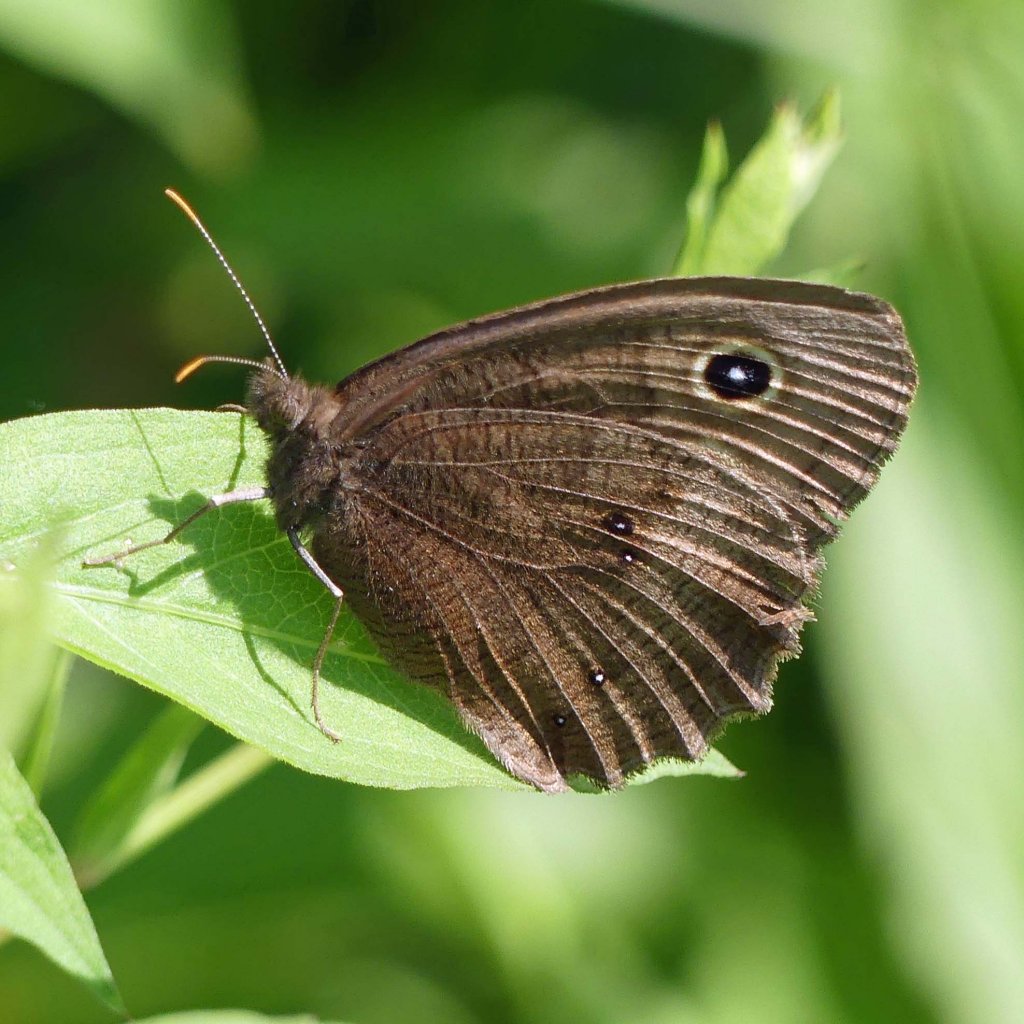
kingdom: Animalia
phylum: Arthropoda
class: Insecta
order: Lepidoptera
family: Nymphalidae
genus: Cercyonis
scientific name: Cercyonis pegala
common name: Common Wood-Nymph
